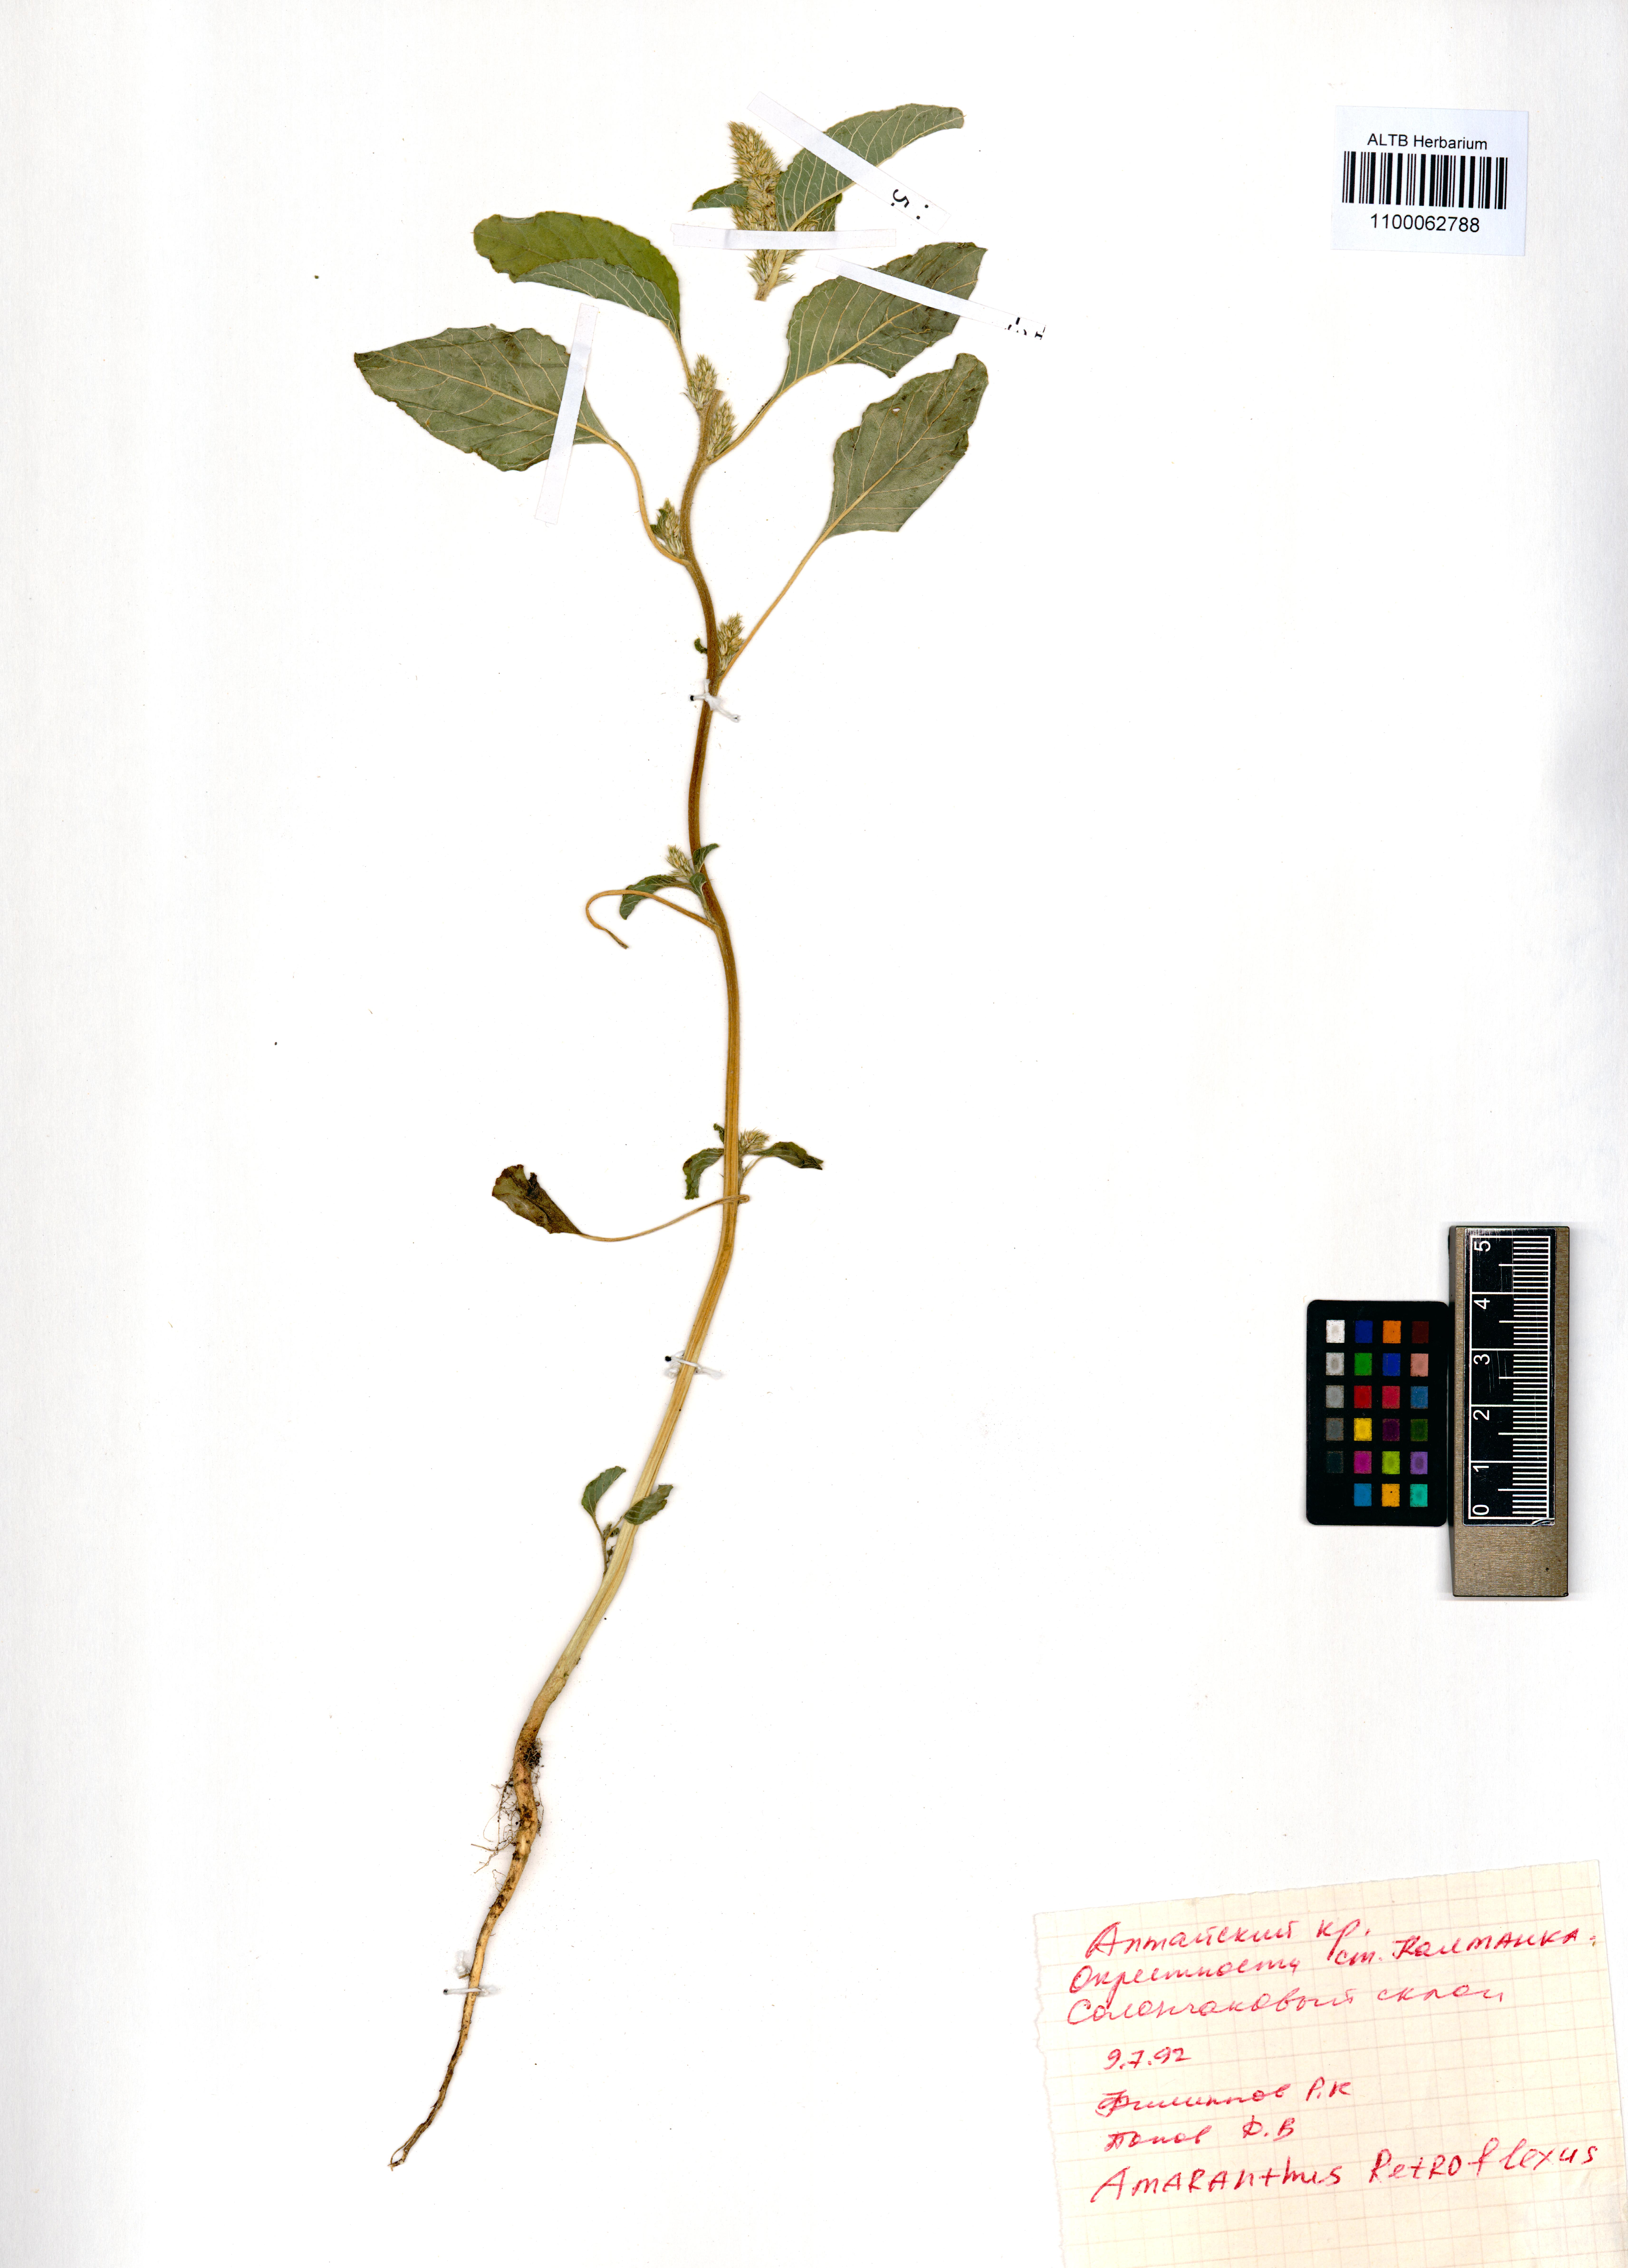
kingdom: Plantae
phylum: Tracheophyta
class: Magnoliopsida
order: Caryophyllales
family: Amaranthaceae
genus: Amaranthus
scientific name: Amaranthus retroflexus
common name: Redroot amaranth
